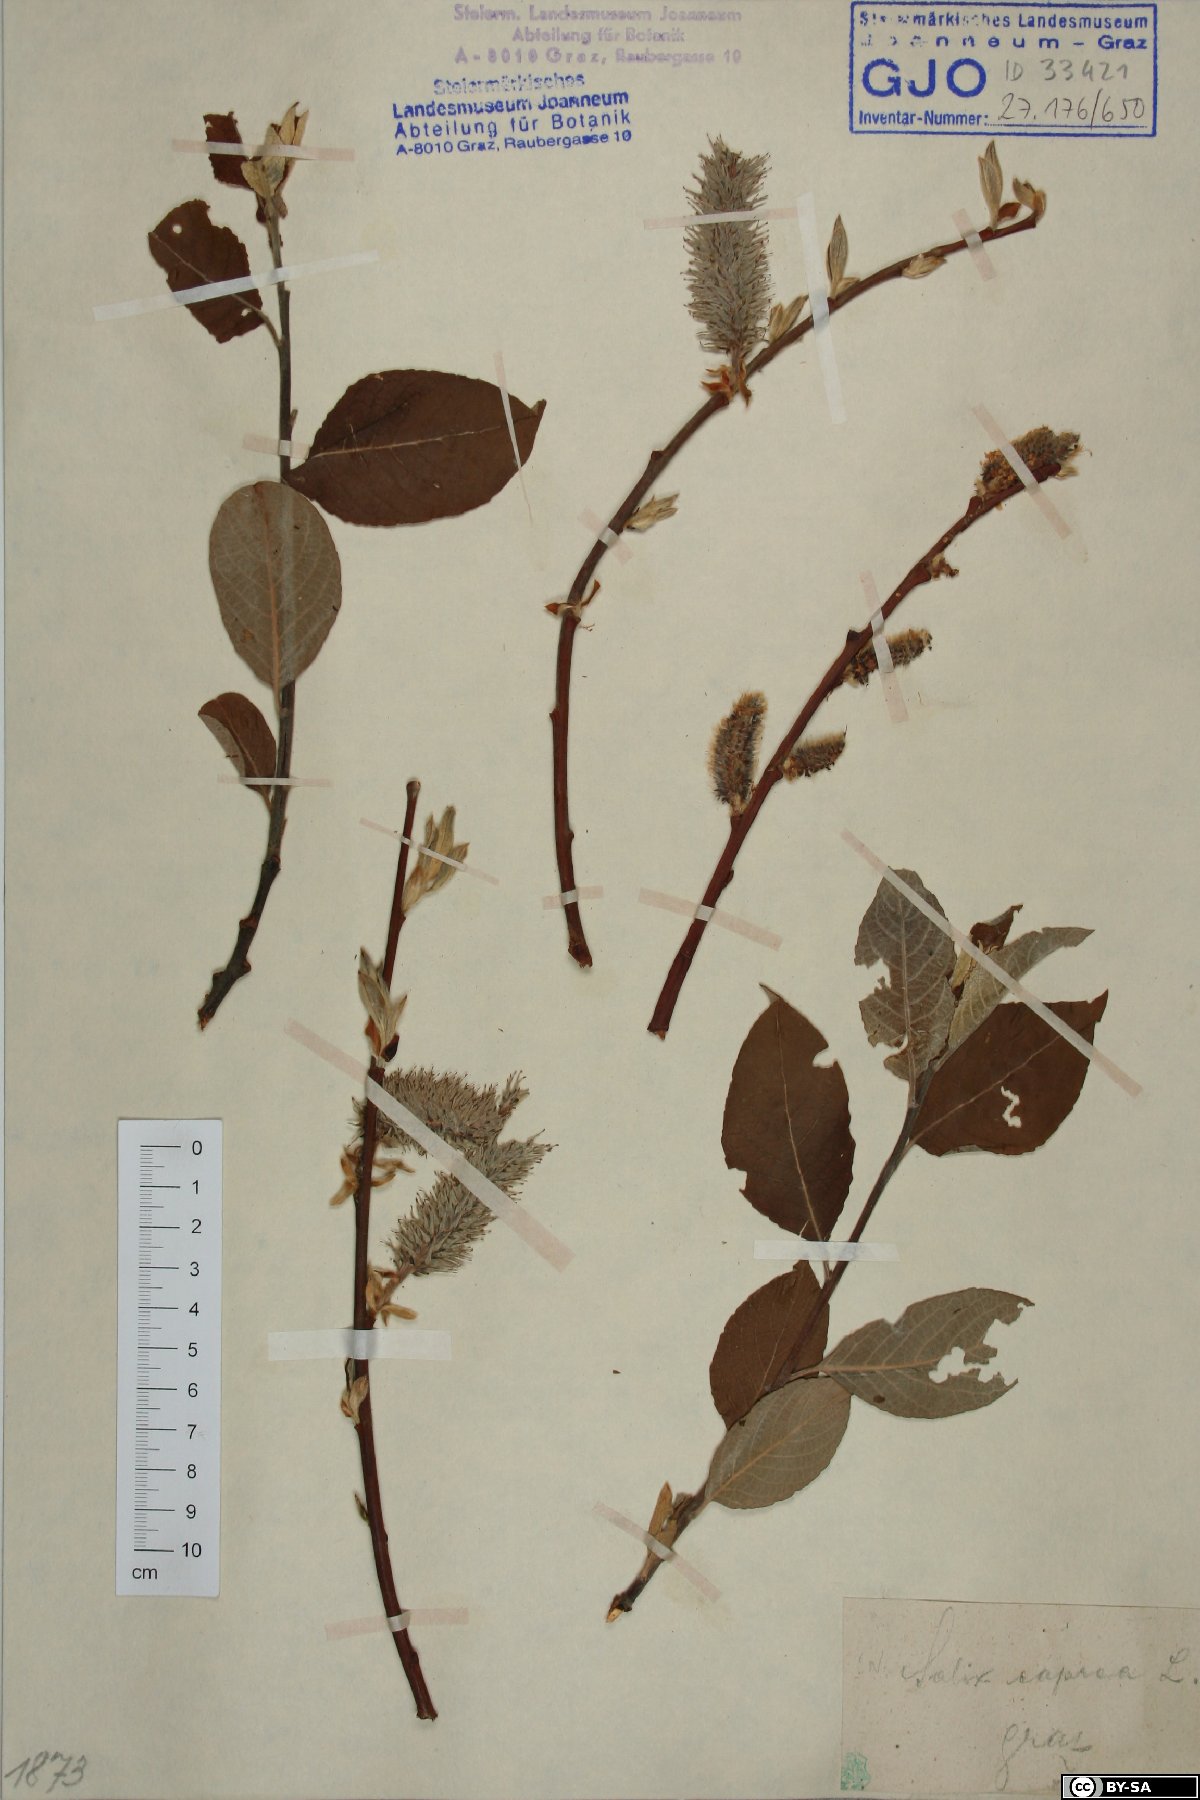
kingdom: Plantae
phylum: Tracheophyta
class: Magnoliopsida
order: Malpighiales
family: Salicaceae
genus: Salix
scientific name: Salix caprea
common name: Goat willow
